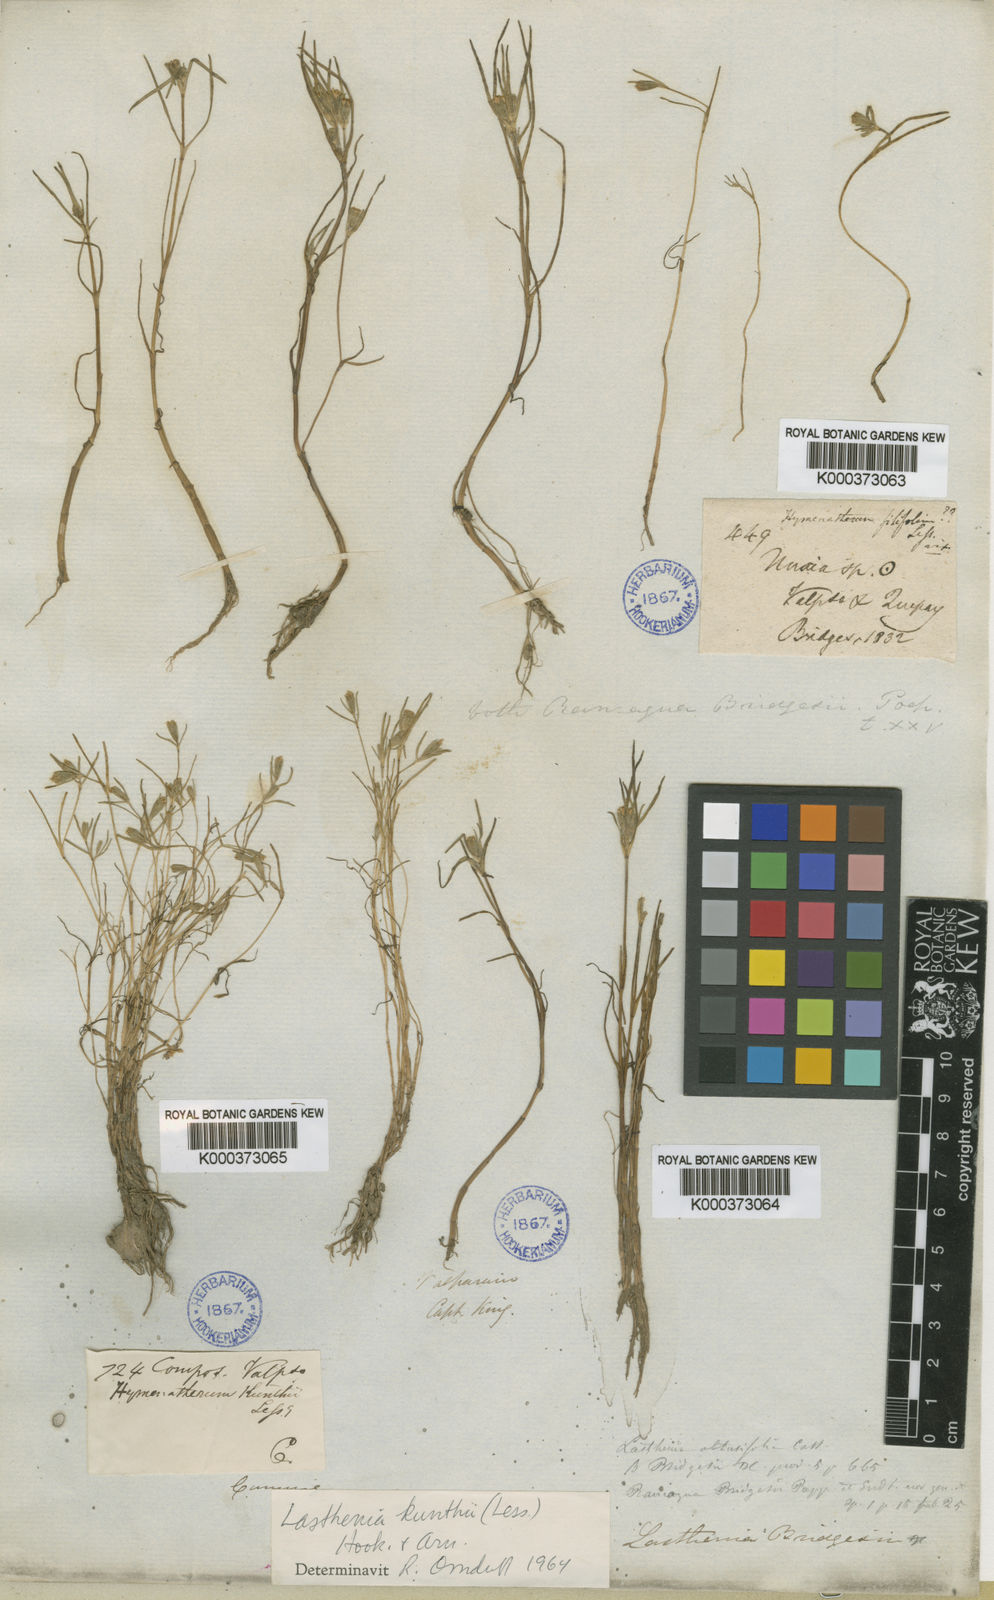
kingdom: Plantae
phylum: Tracheophyta
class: Magnoliopsida
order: Asterales
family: Asteraceae
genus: Lasthenia
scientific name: Lasthenia kunthii
